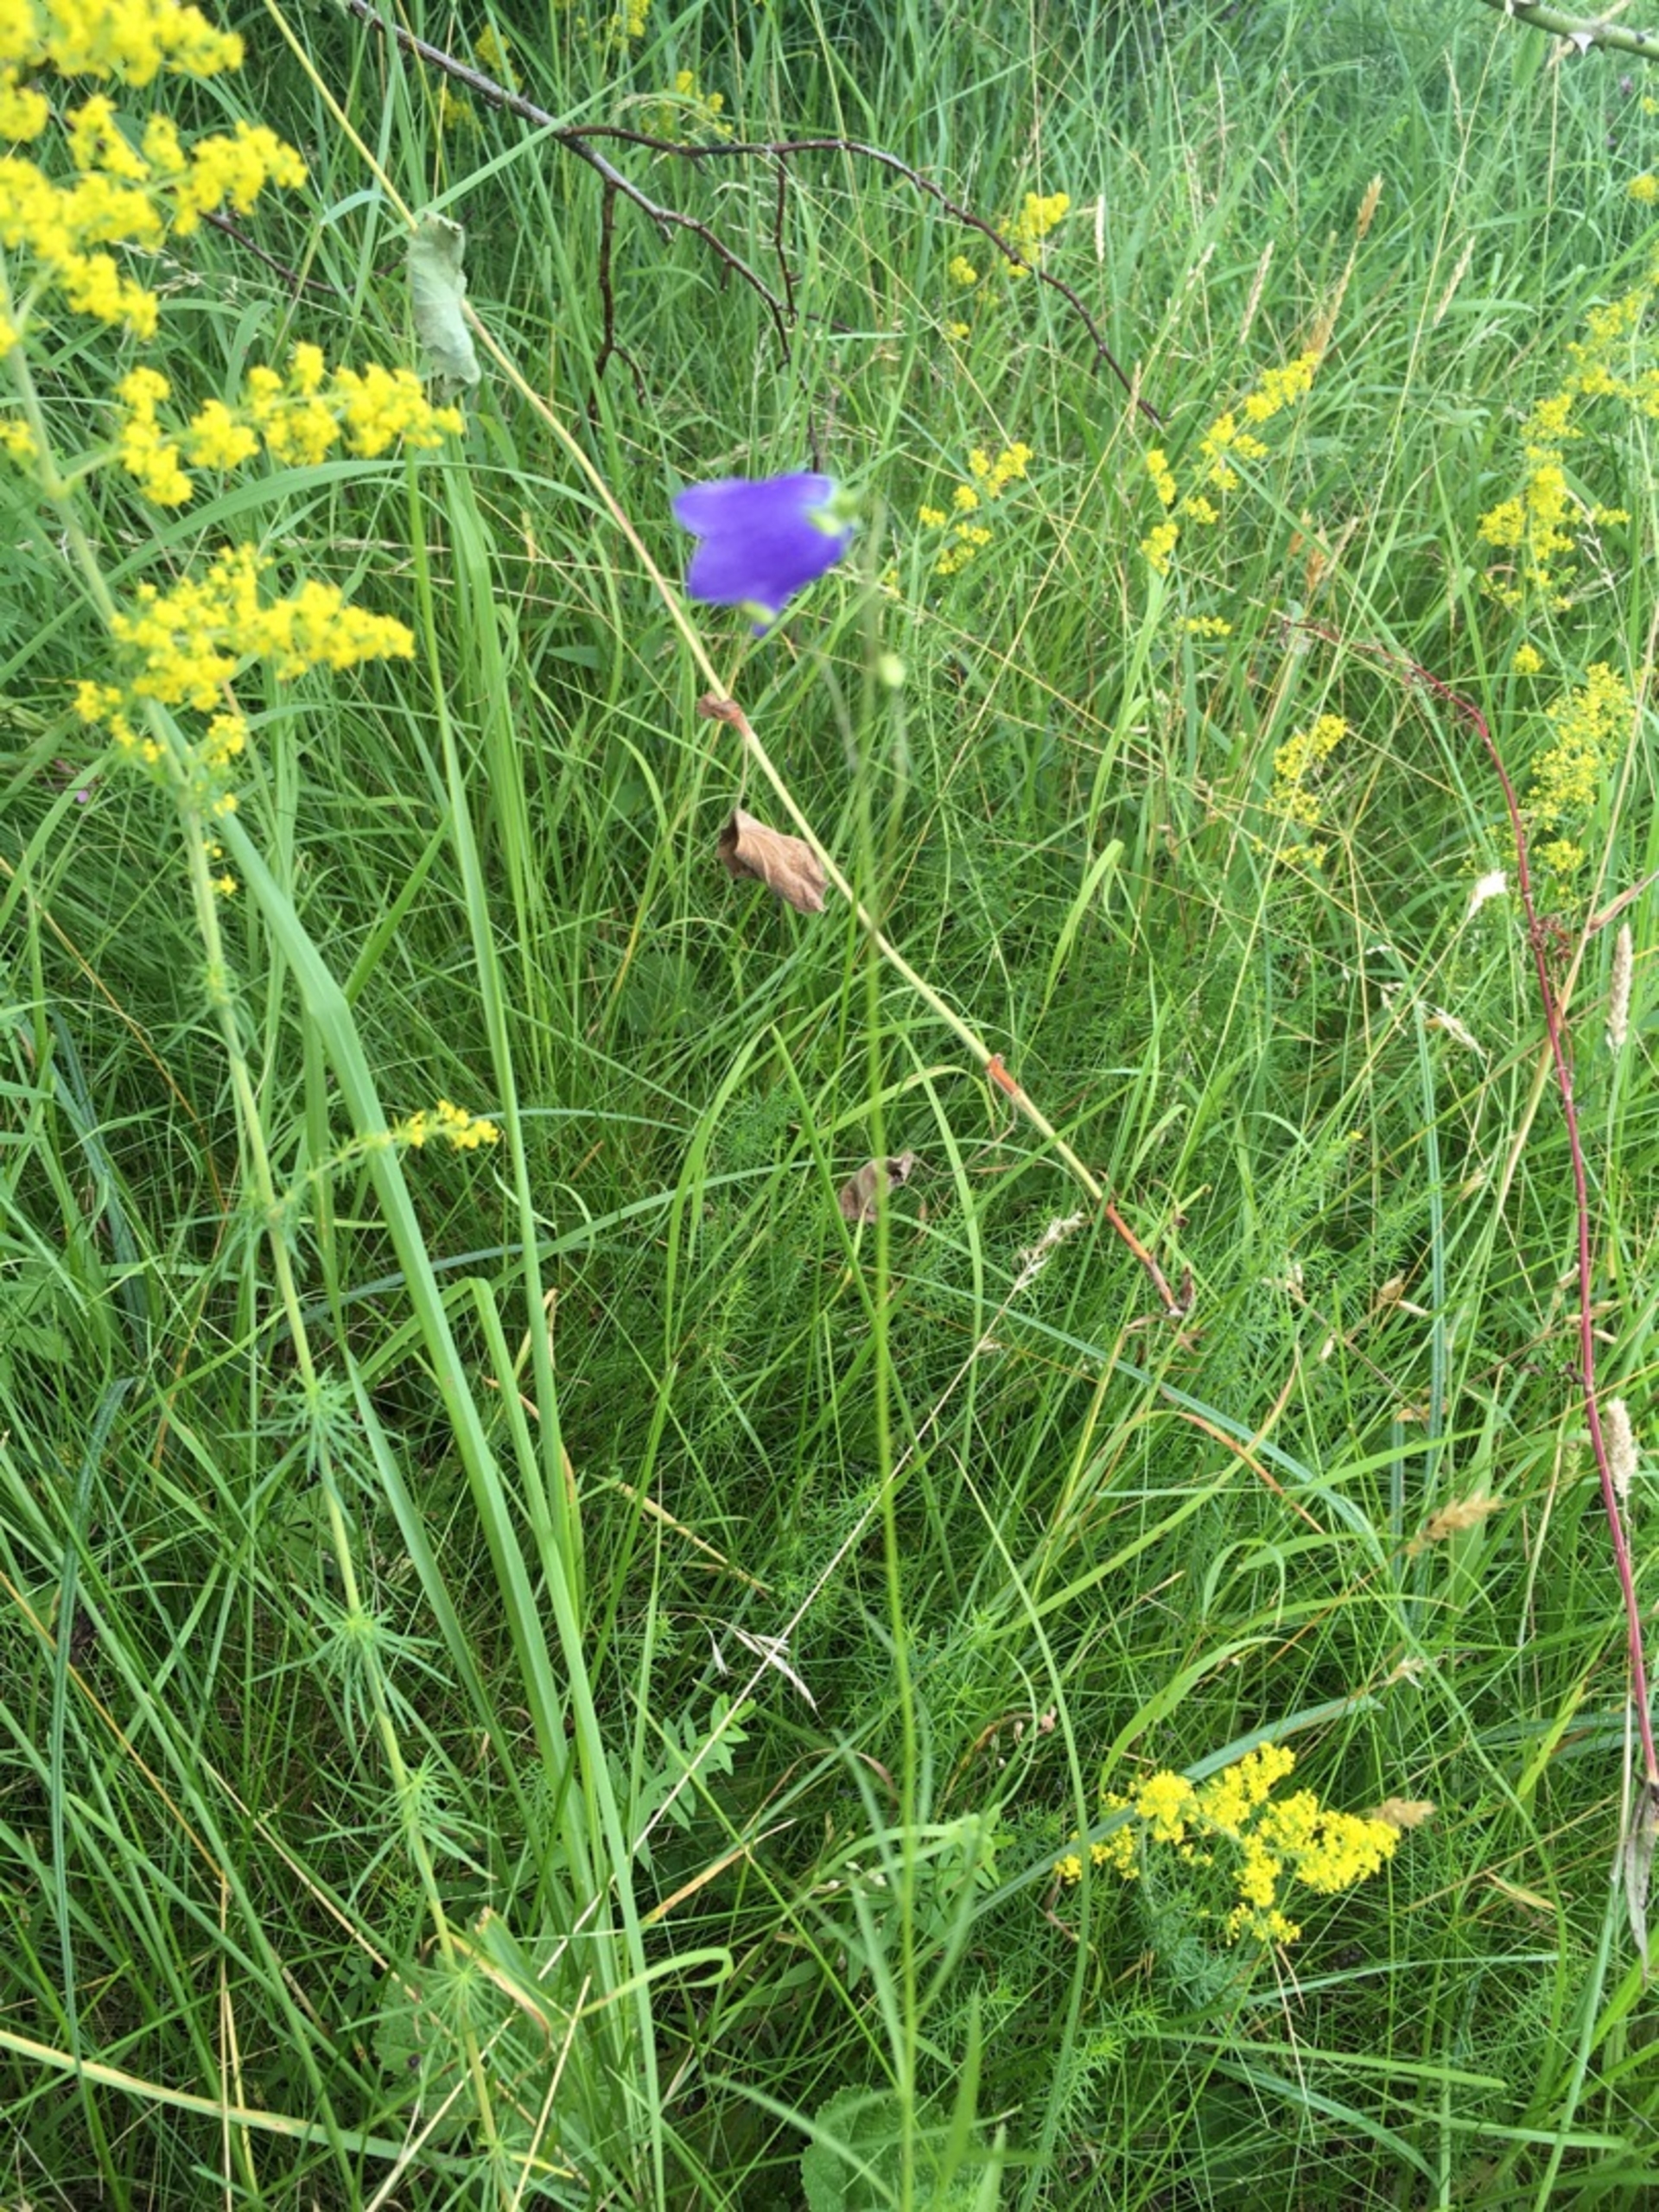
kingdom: Plantae
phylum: Tracheophyta
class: Magnoliopsida
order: Asterales
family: Campanulaceae
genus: Campanula
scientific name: Campanula rotundifolia
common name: Liden klokke
